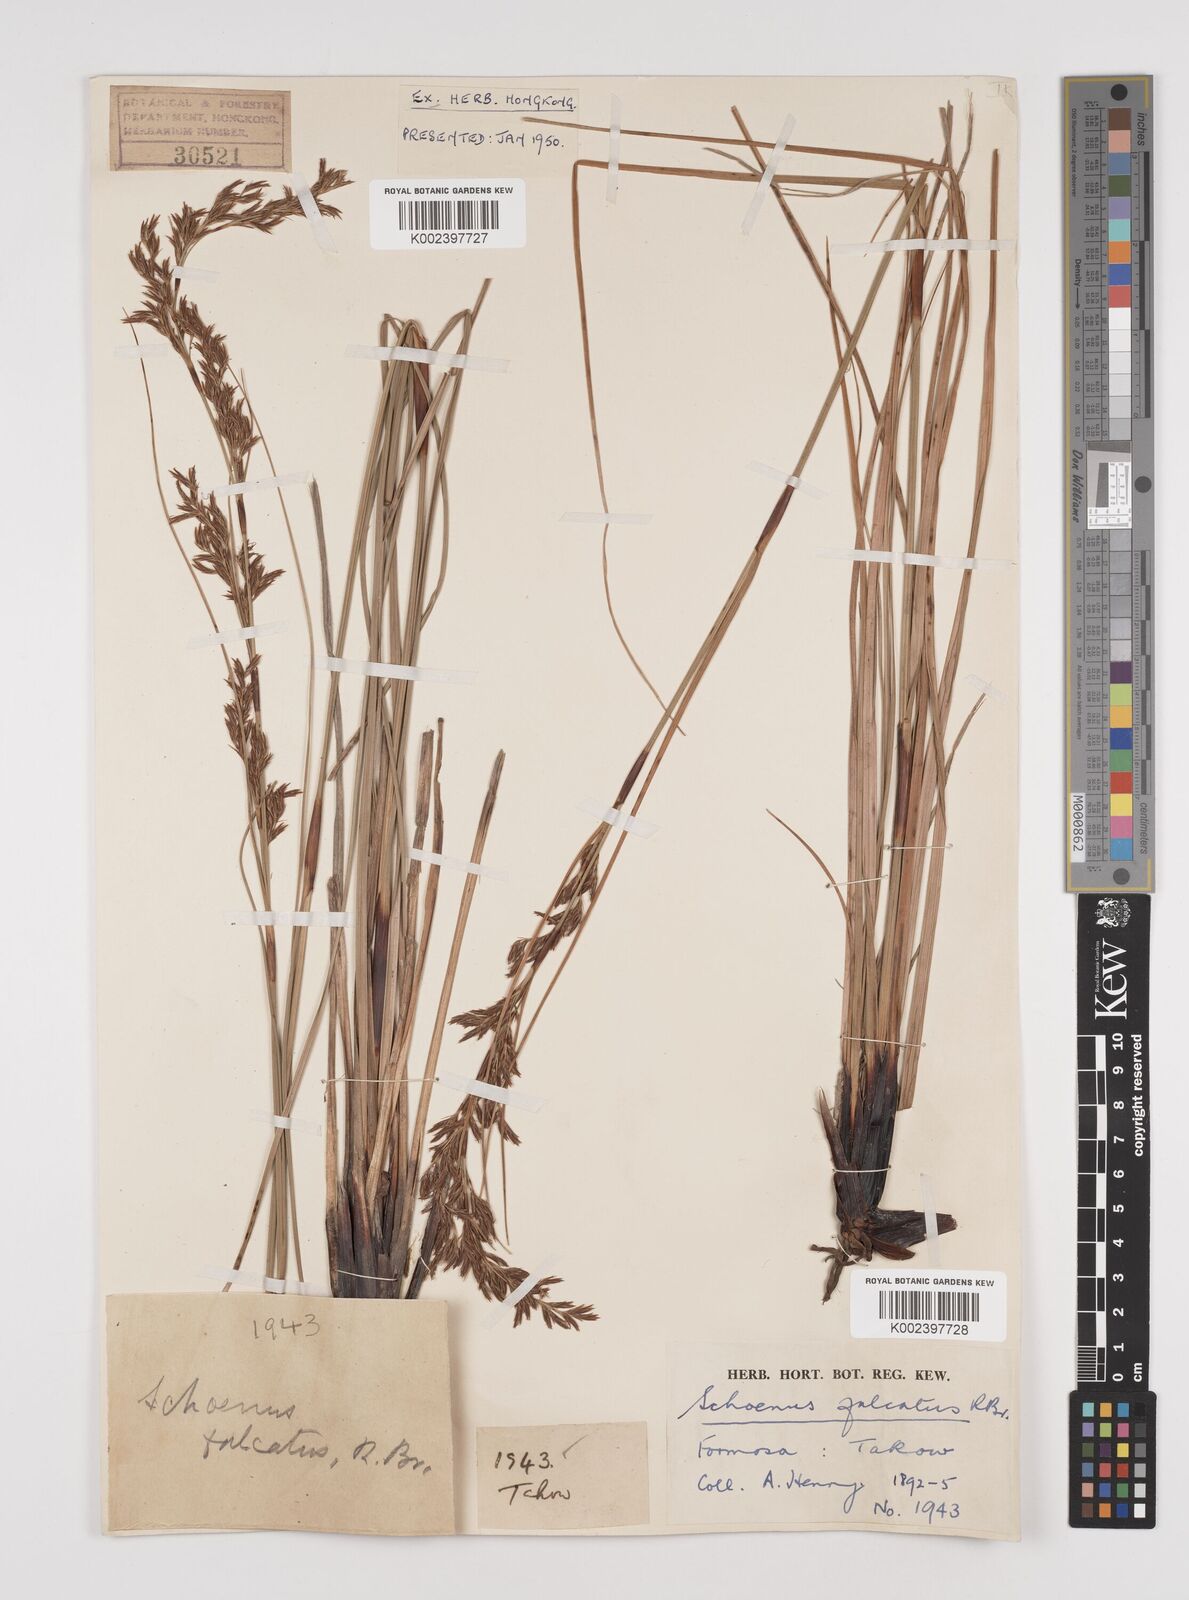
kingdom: Plantae
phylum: Tracheophyta
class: Liliopsida
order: Poales
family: Cyperaceae
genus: Schoenus
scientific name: Schoenus falcatus
